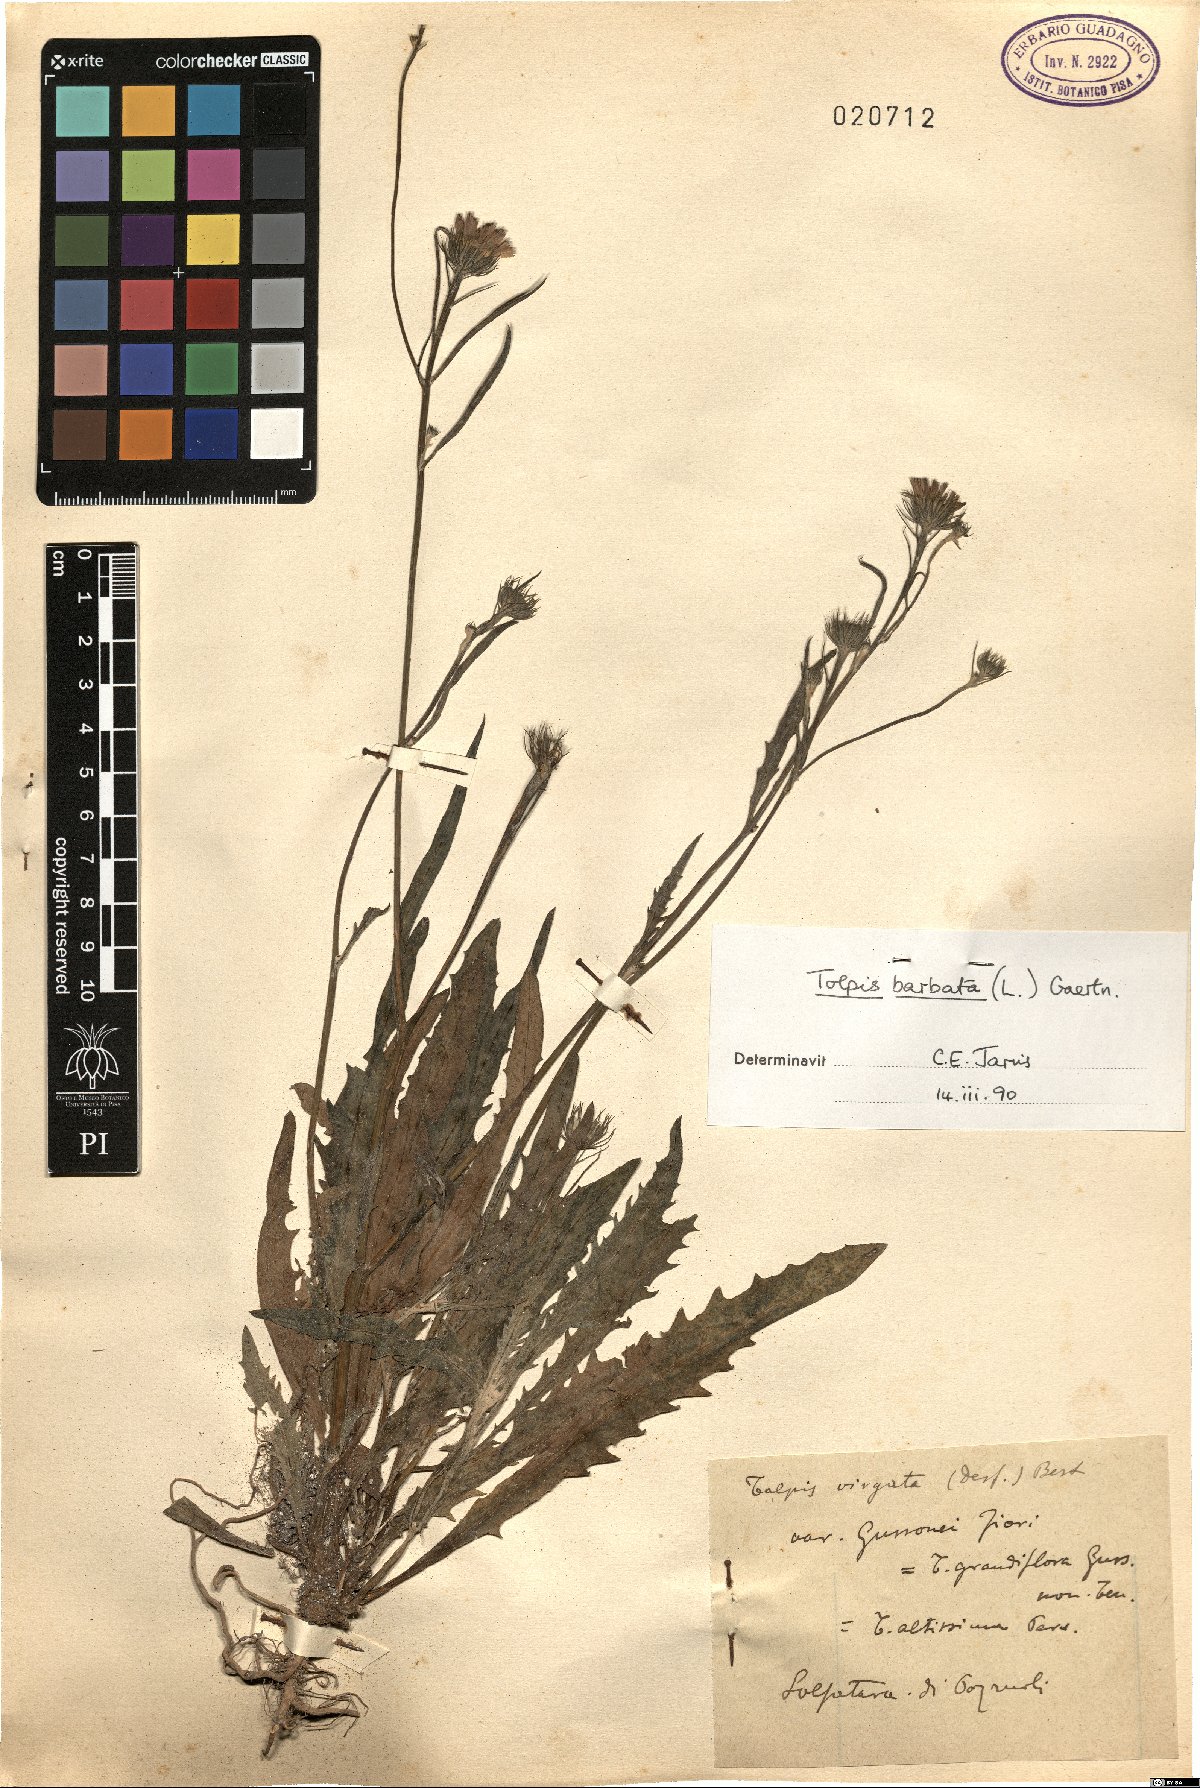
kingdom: Plantae
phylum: Tracheophyta
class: Magnoliopsida
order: Asterales
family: Asteraceae
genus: Tolpis
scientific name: Tolpis laciniata
